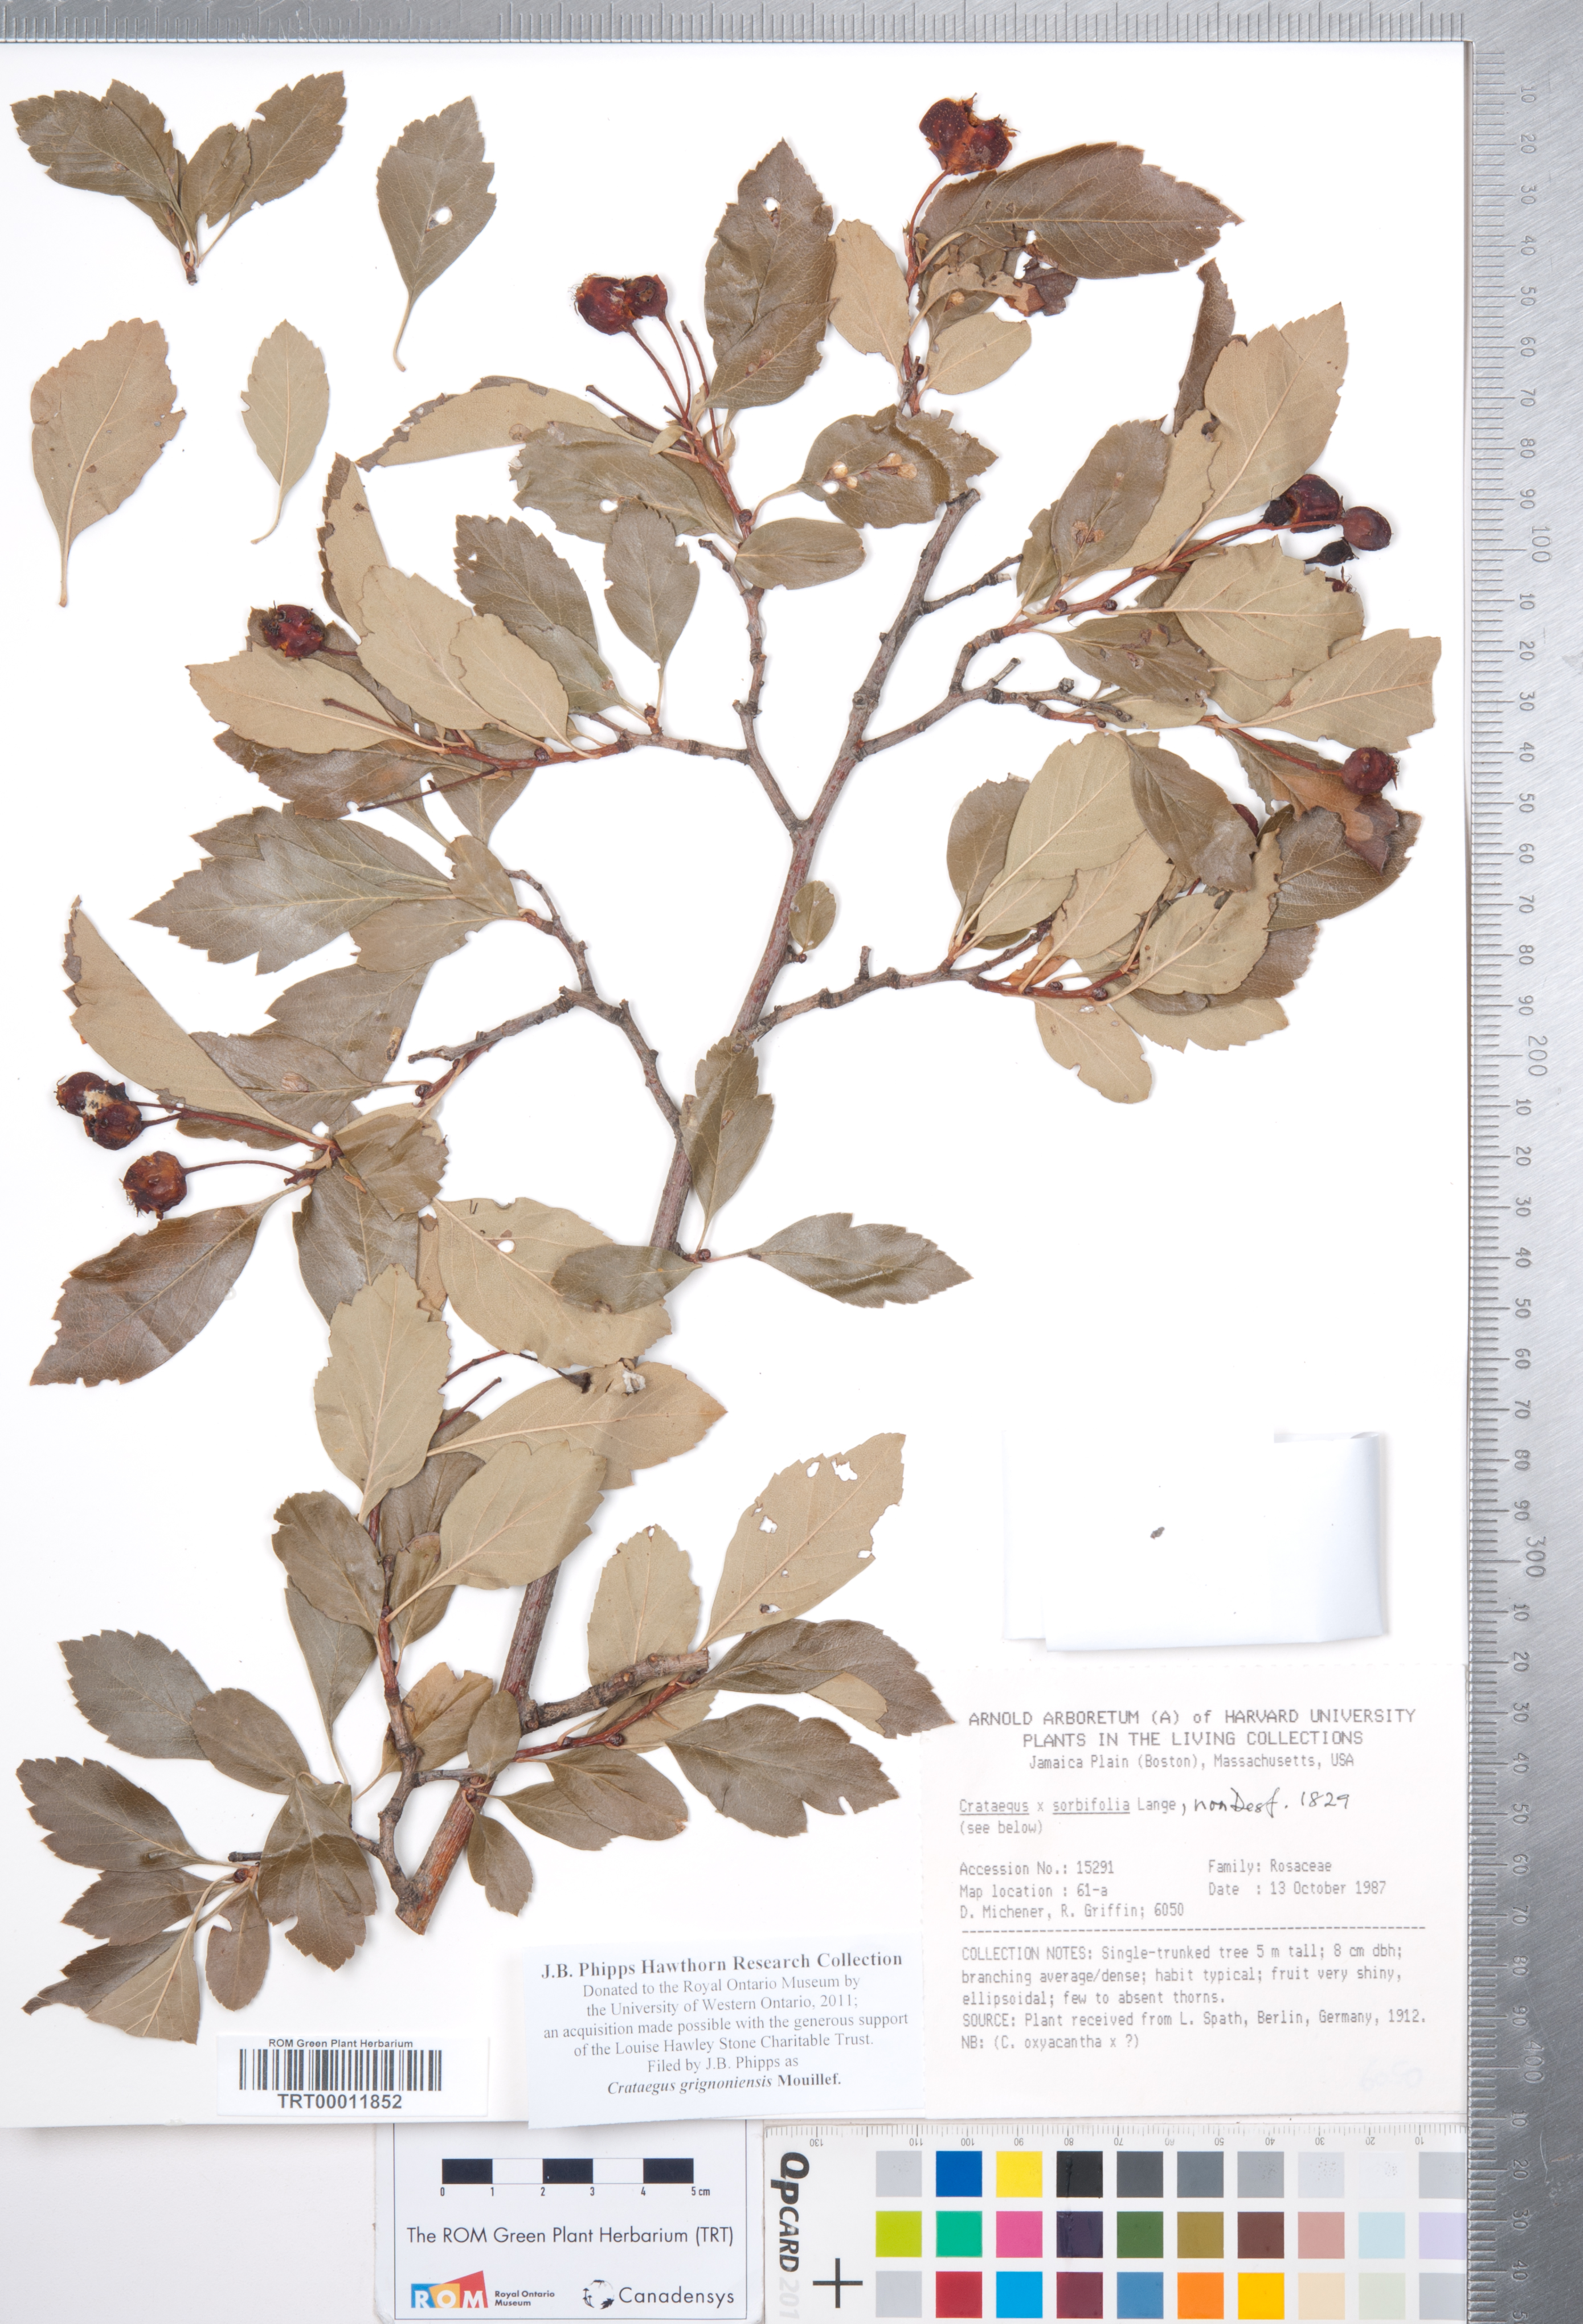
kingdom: Plantae
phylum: Tracheophyta
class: Magnoliopsida
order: Rosales
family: Rosaceae
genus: Crataegus
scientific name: Crataegus grignonensis
